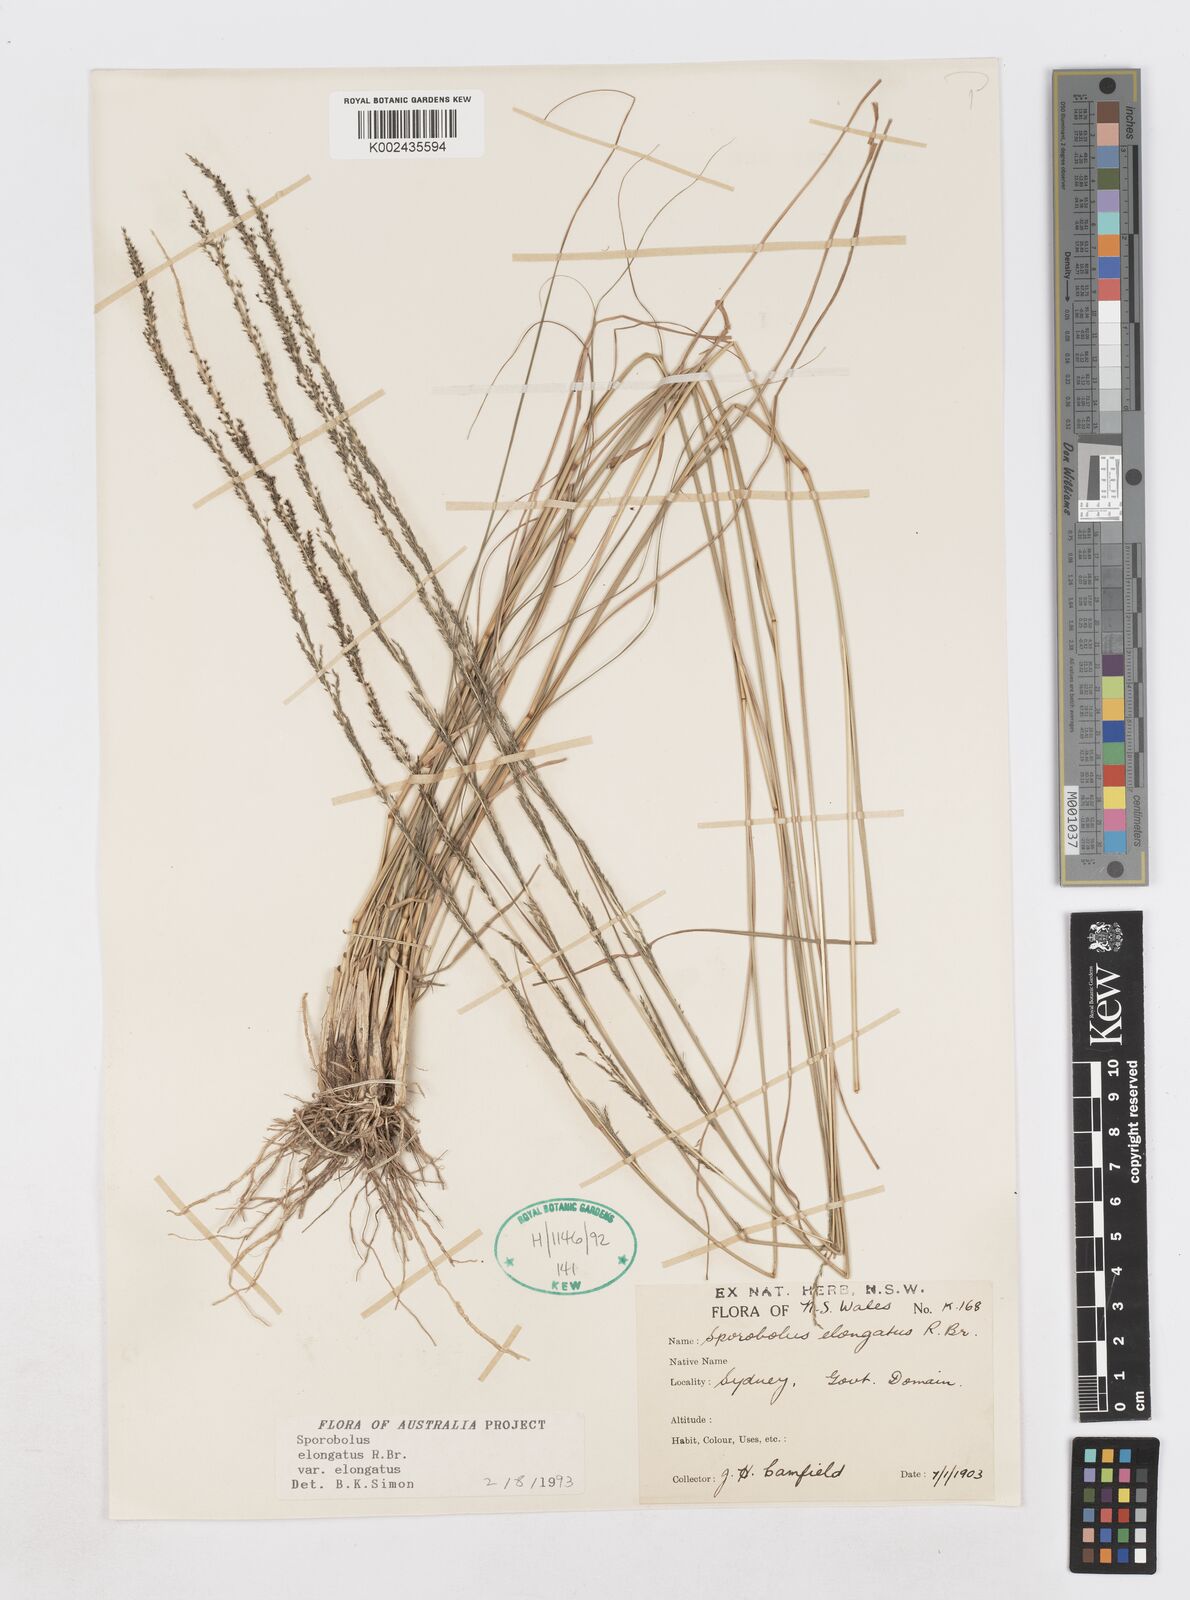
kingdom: Plantae
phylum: Tracheophyta
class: Liliopsida
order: Poales
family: Poaceae
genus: Sporobolus
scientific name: Sporobolus elongatus
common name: Rat tail grass
